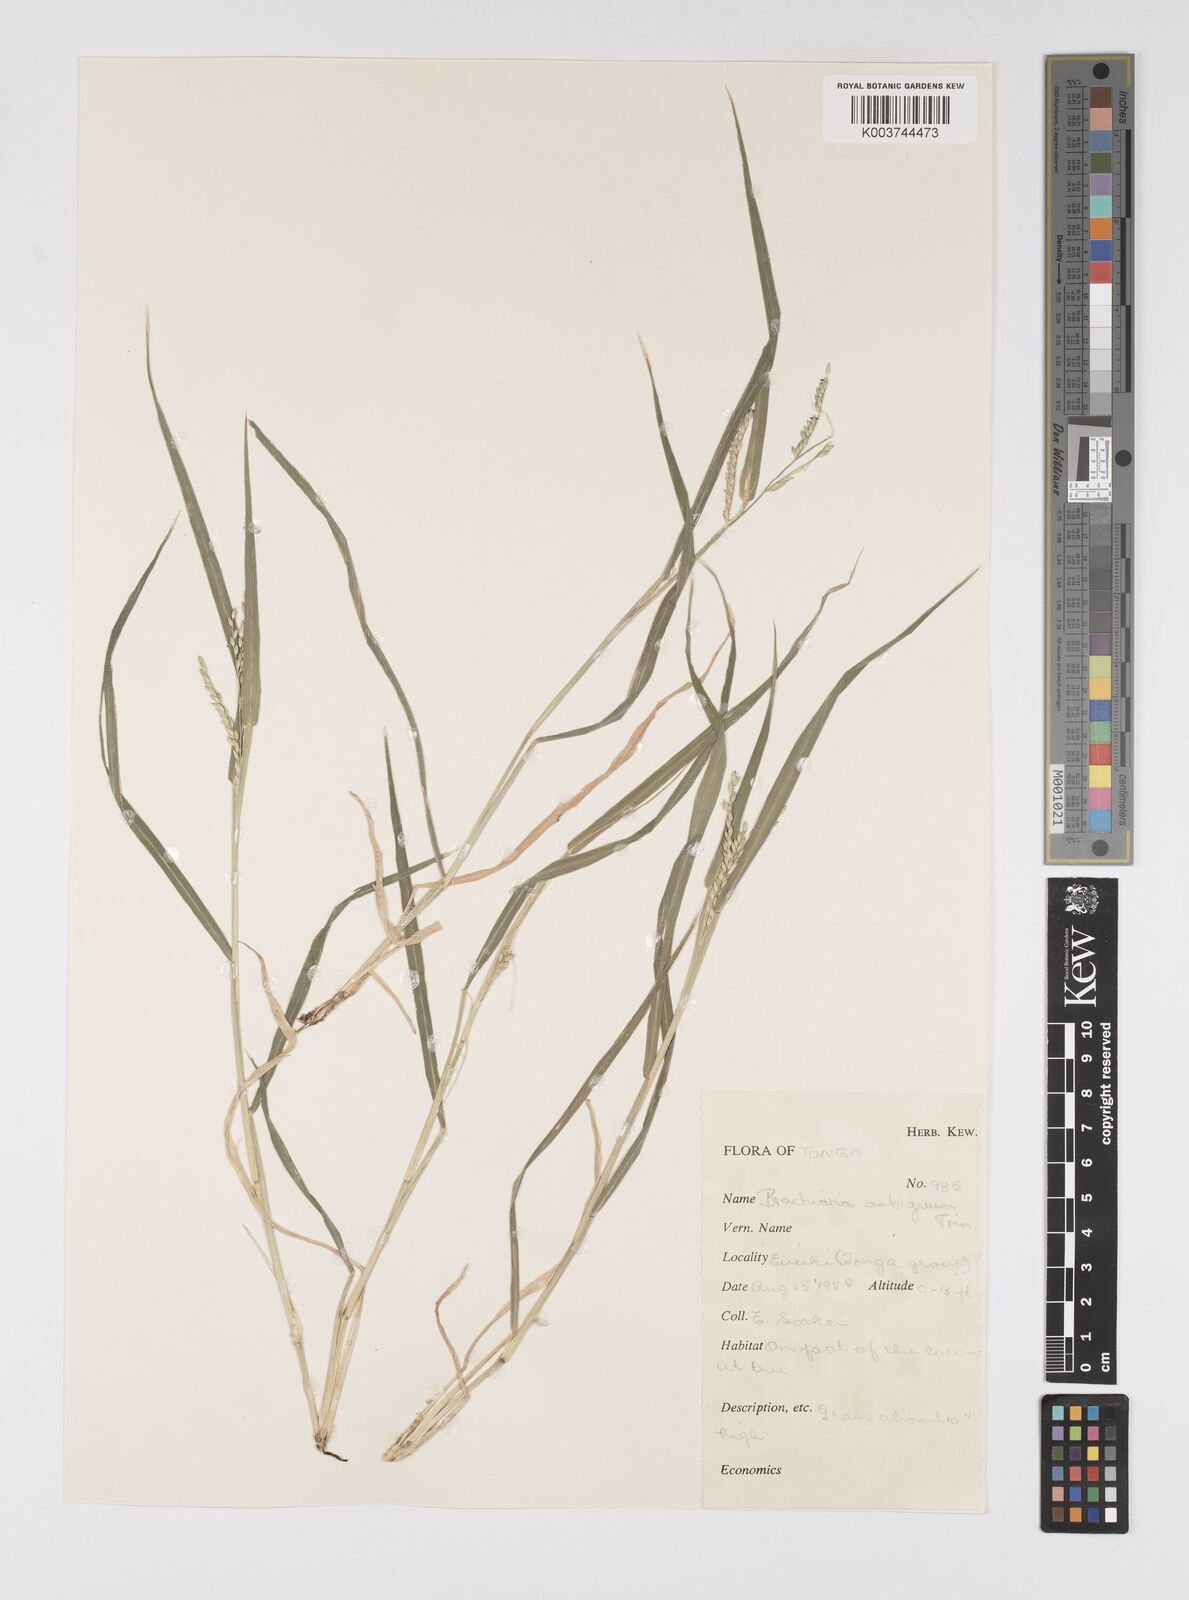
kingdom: Plantae
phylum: Tracheophyta
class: Liliopsida
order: Poales
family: Poaceae
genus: Urochloa
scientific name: Urochloa glumaris
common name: Thurston grass
